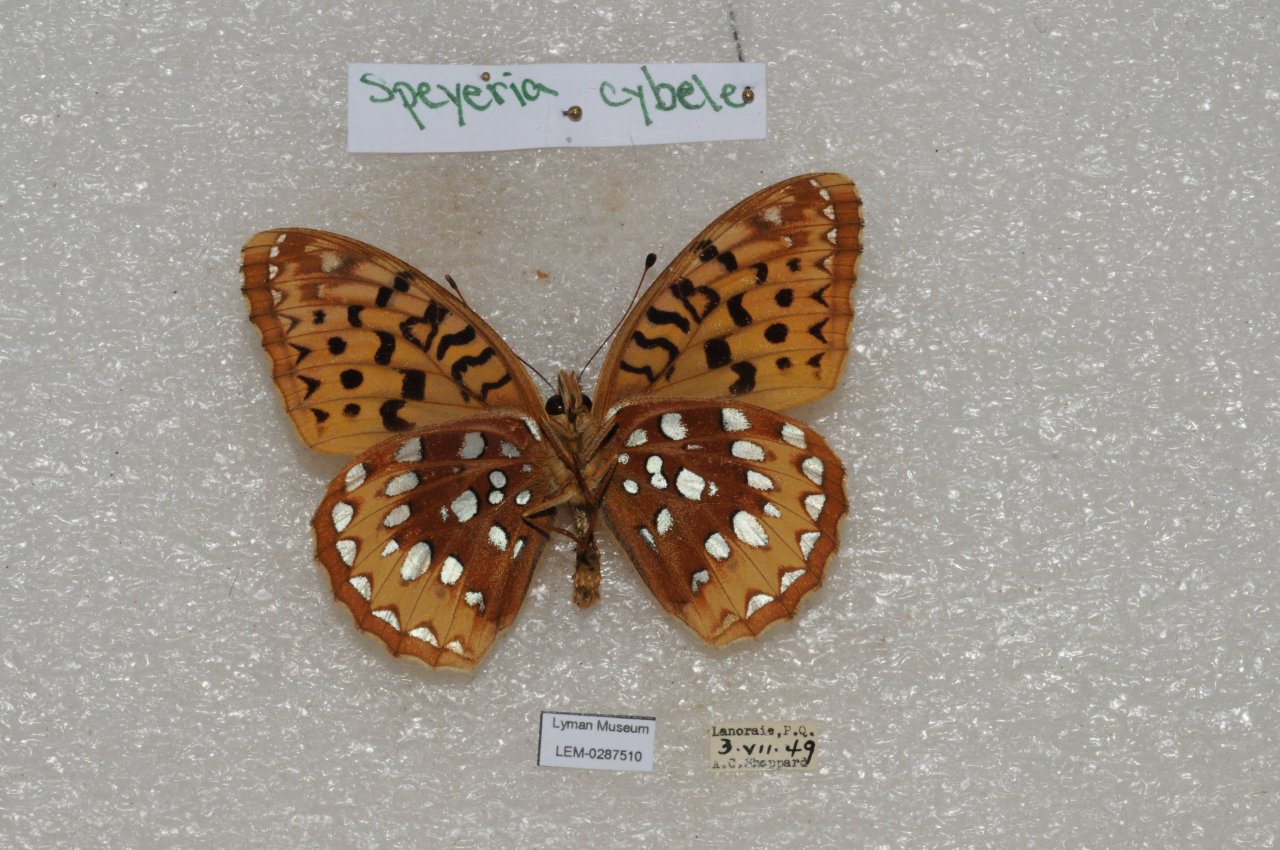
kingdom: Animalia
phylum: Arthropoda
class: Insecta
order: Lepidoptera
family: Nymphalidae
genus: Speyeria
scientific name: Speyeria cybele
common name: Great Spangled Fritillary
